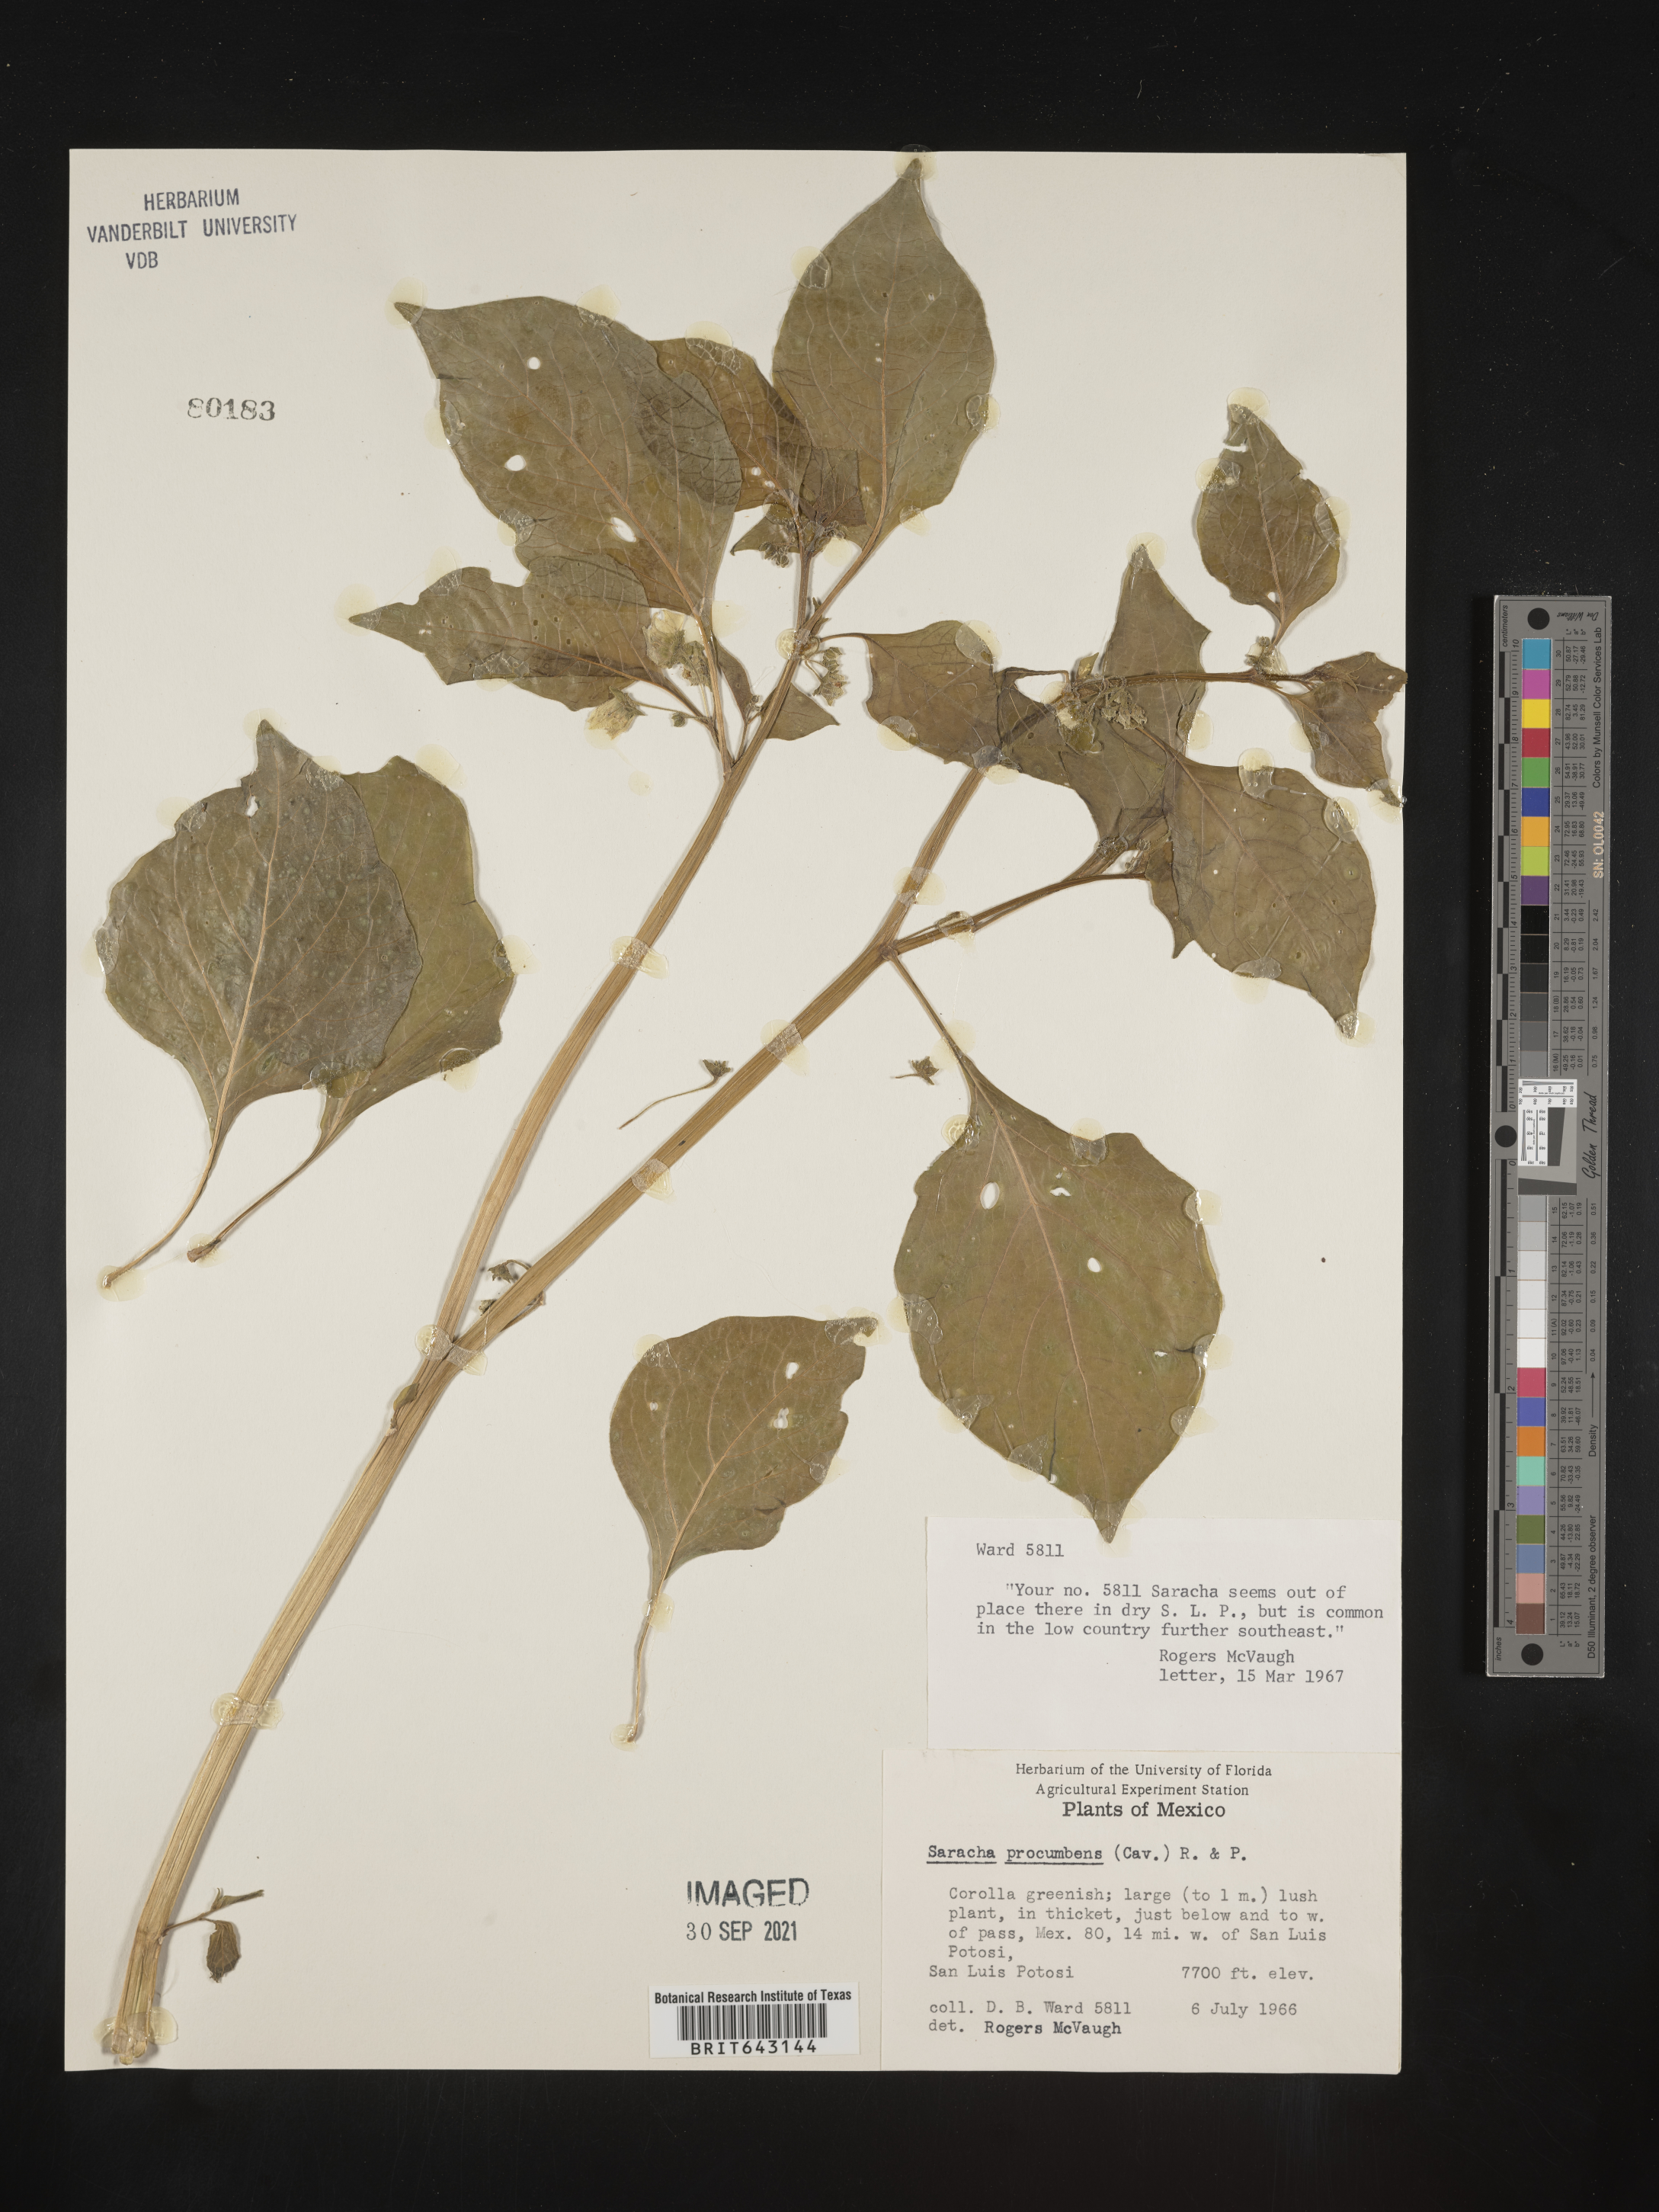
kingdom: Plantae
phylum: Tracheophyta
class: Magnoliopsida
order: Solanales
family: Solanaceae
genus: Saracha
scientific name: Saracha
